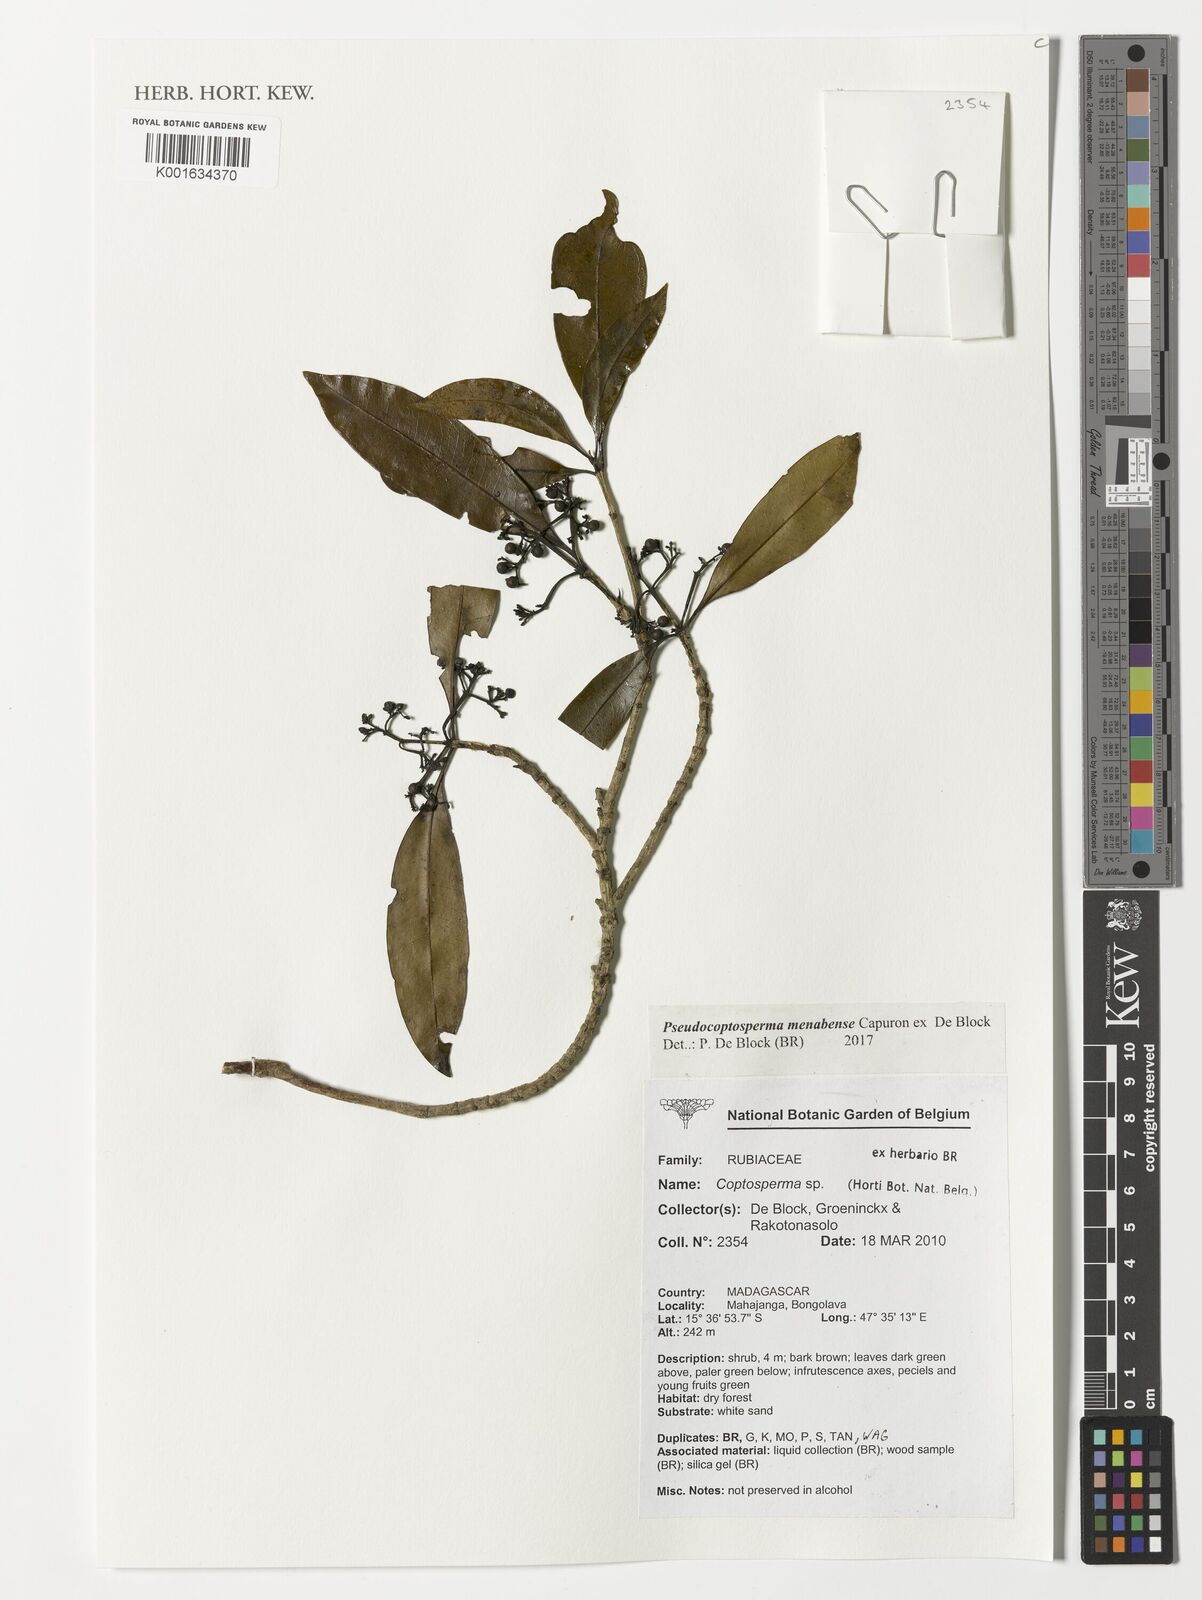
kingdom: Plantae
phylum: Tracheophyta
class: Magnoliopsida
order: Gentianales
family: Rubiaceae
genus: Pseudocoptosperma
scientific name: Pseudocoptosperma menabense
